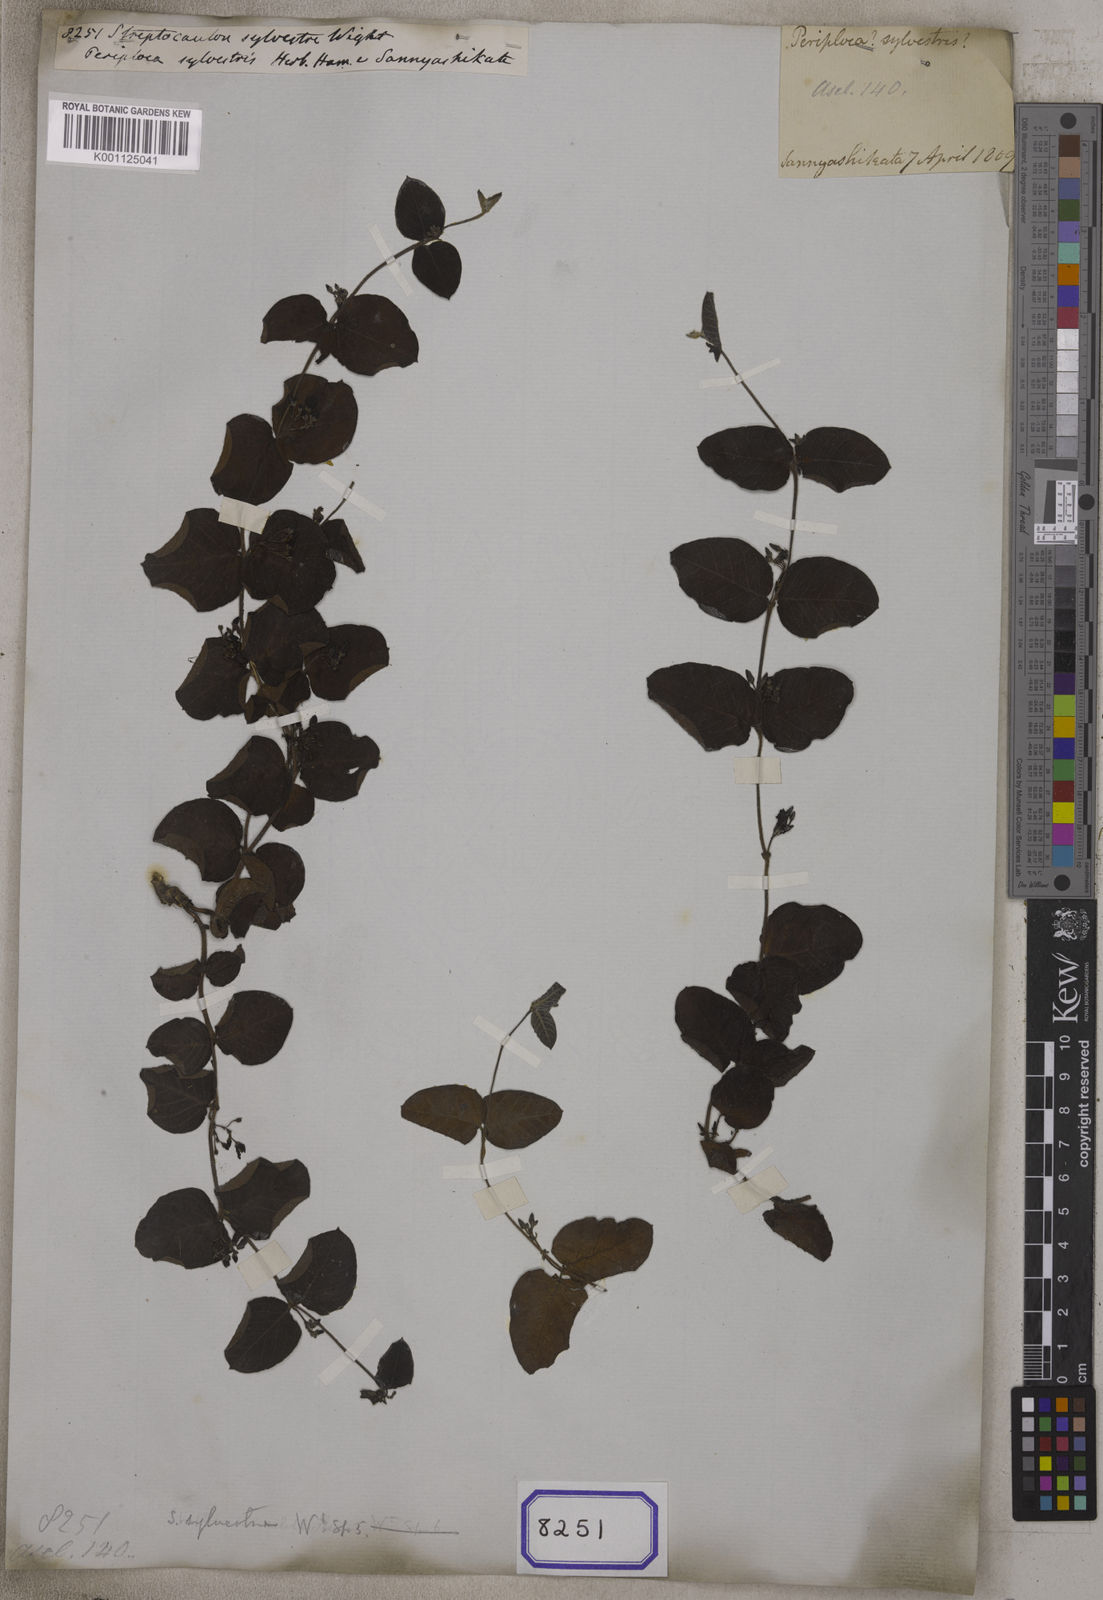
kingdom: Plantae
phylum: Tracheophyta
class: Magnoliopsida
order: Gentianales
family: Apocynaceae
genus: Streptocaulon
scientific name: Streptocaulon sylvestre
